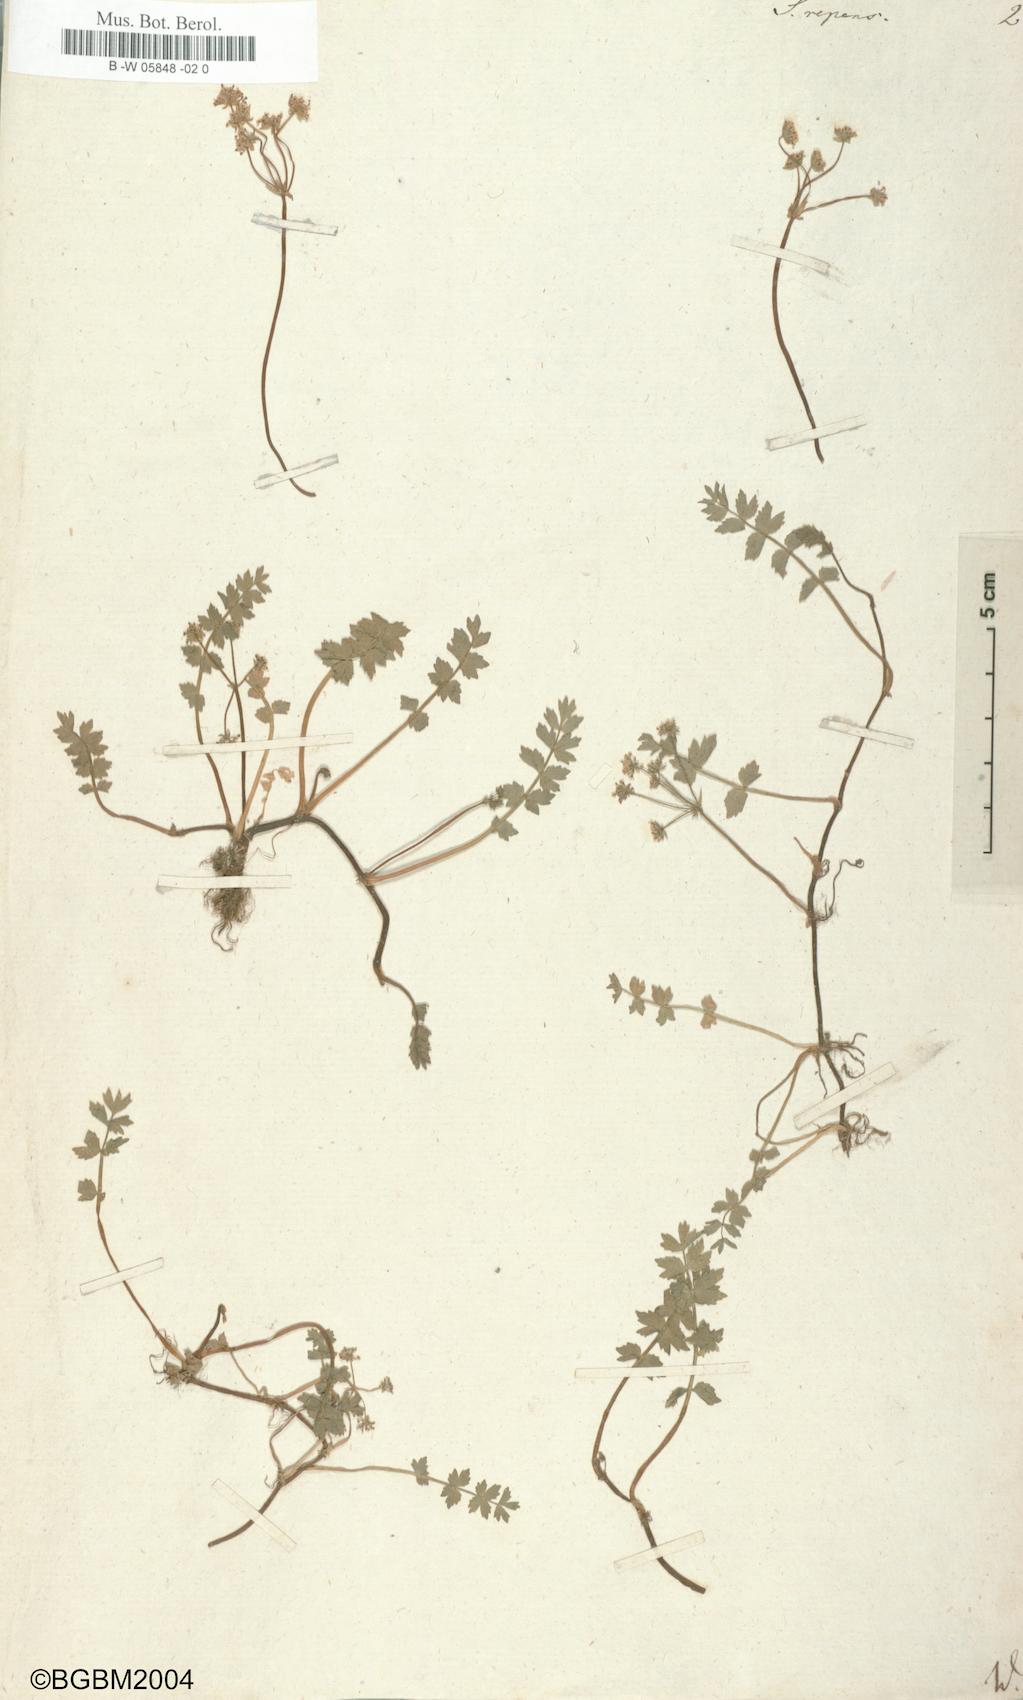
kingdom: Plantae
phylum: Tracheophyta
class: Magnoliopsida
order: Apiales
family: Apiaceae
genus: Helosciadium
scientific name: Helosciadium
